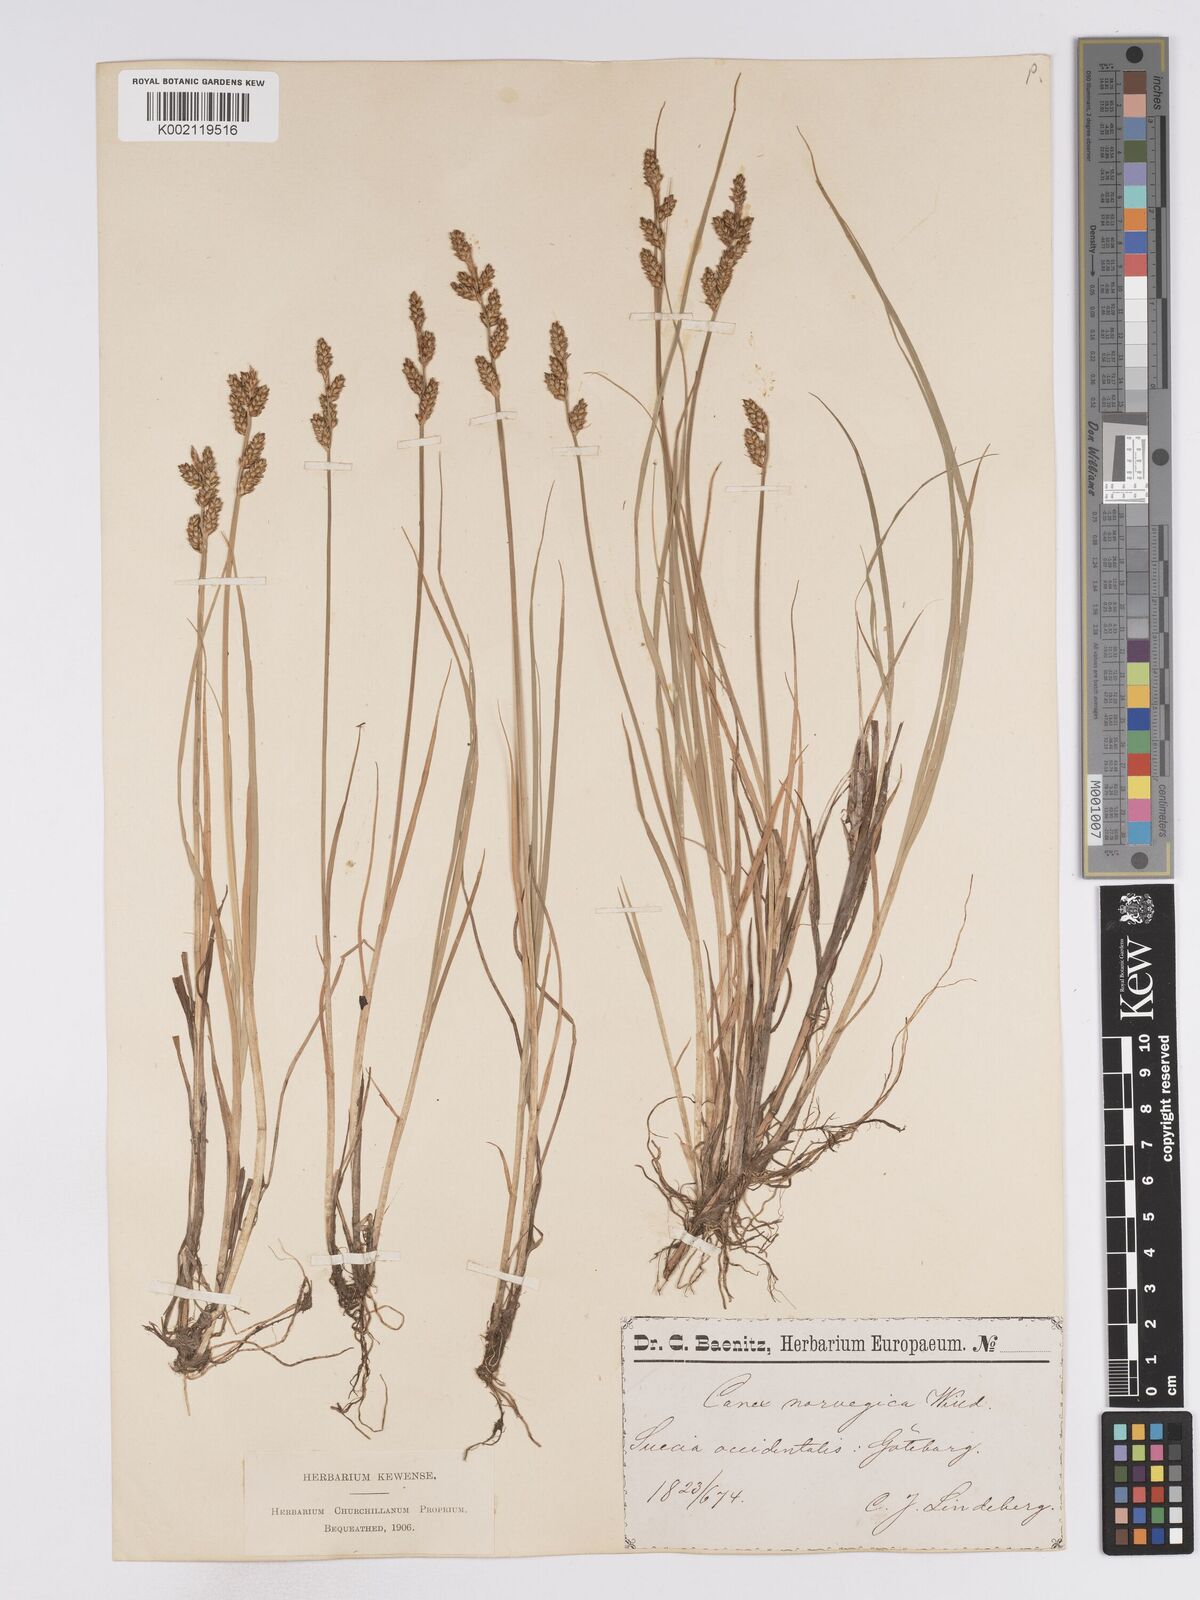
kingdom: Plantae
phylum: Tracheophyta
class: Liliopsida
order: Poales
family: Cyperaceae
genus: Carex
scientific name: Carex mackenziei
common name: Mackenzie's sedge
